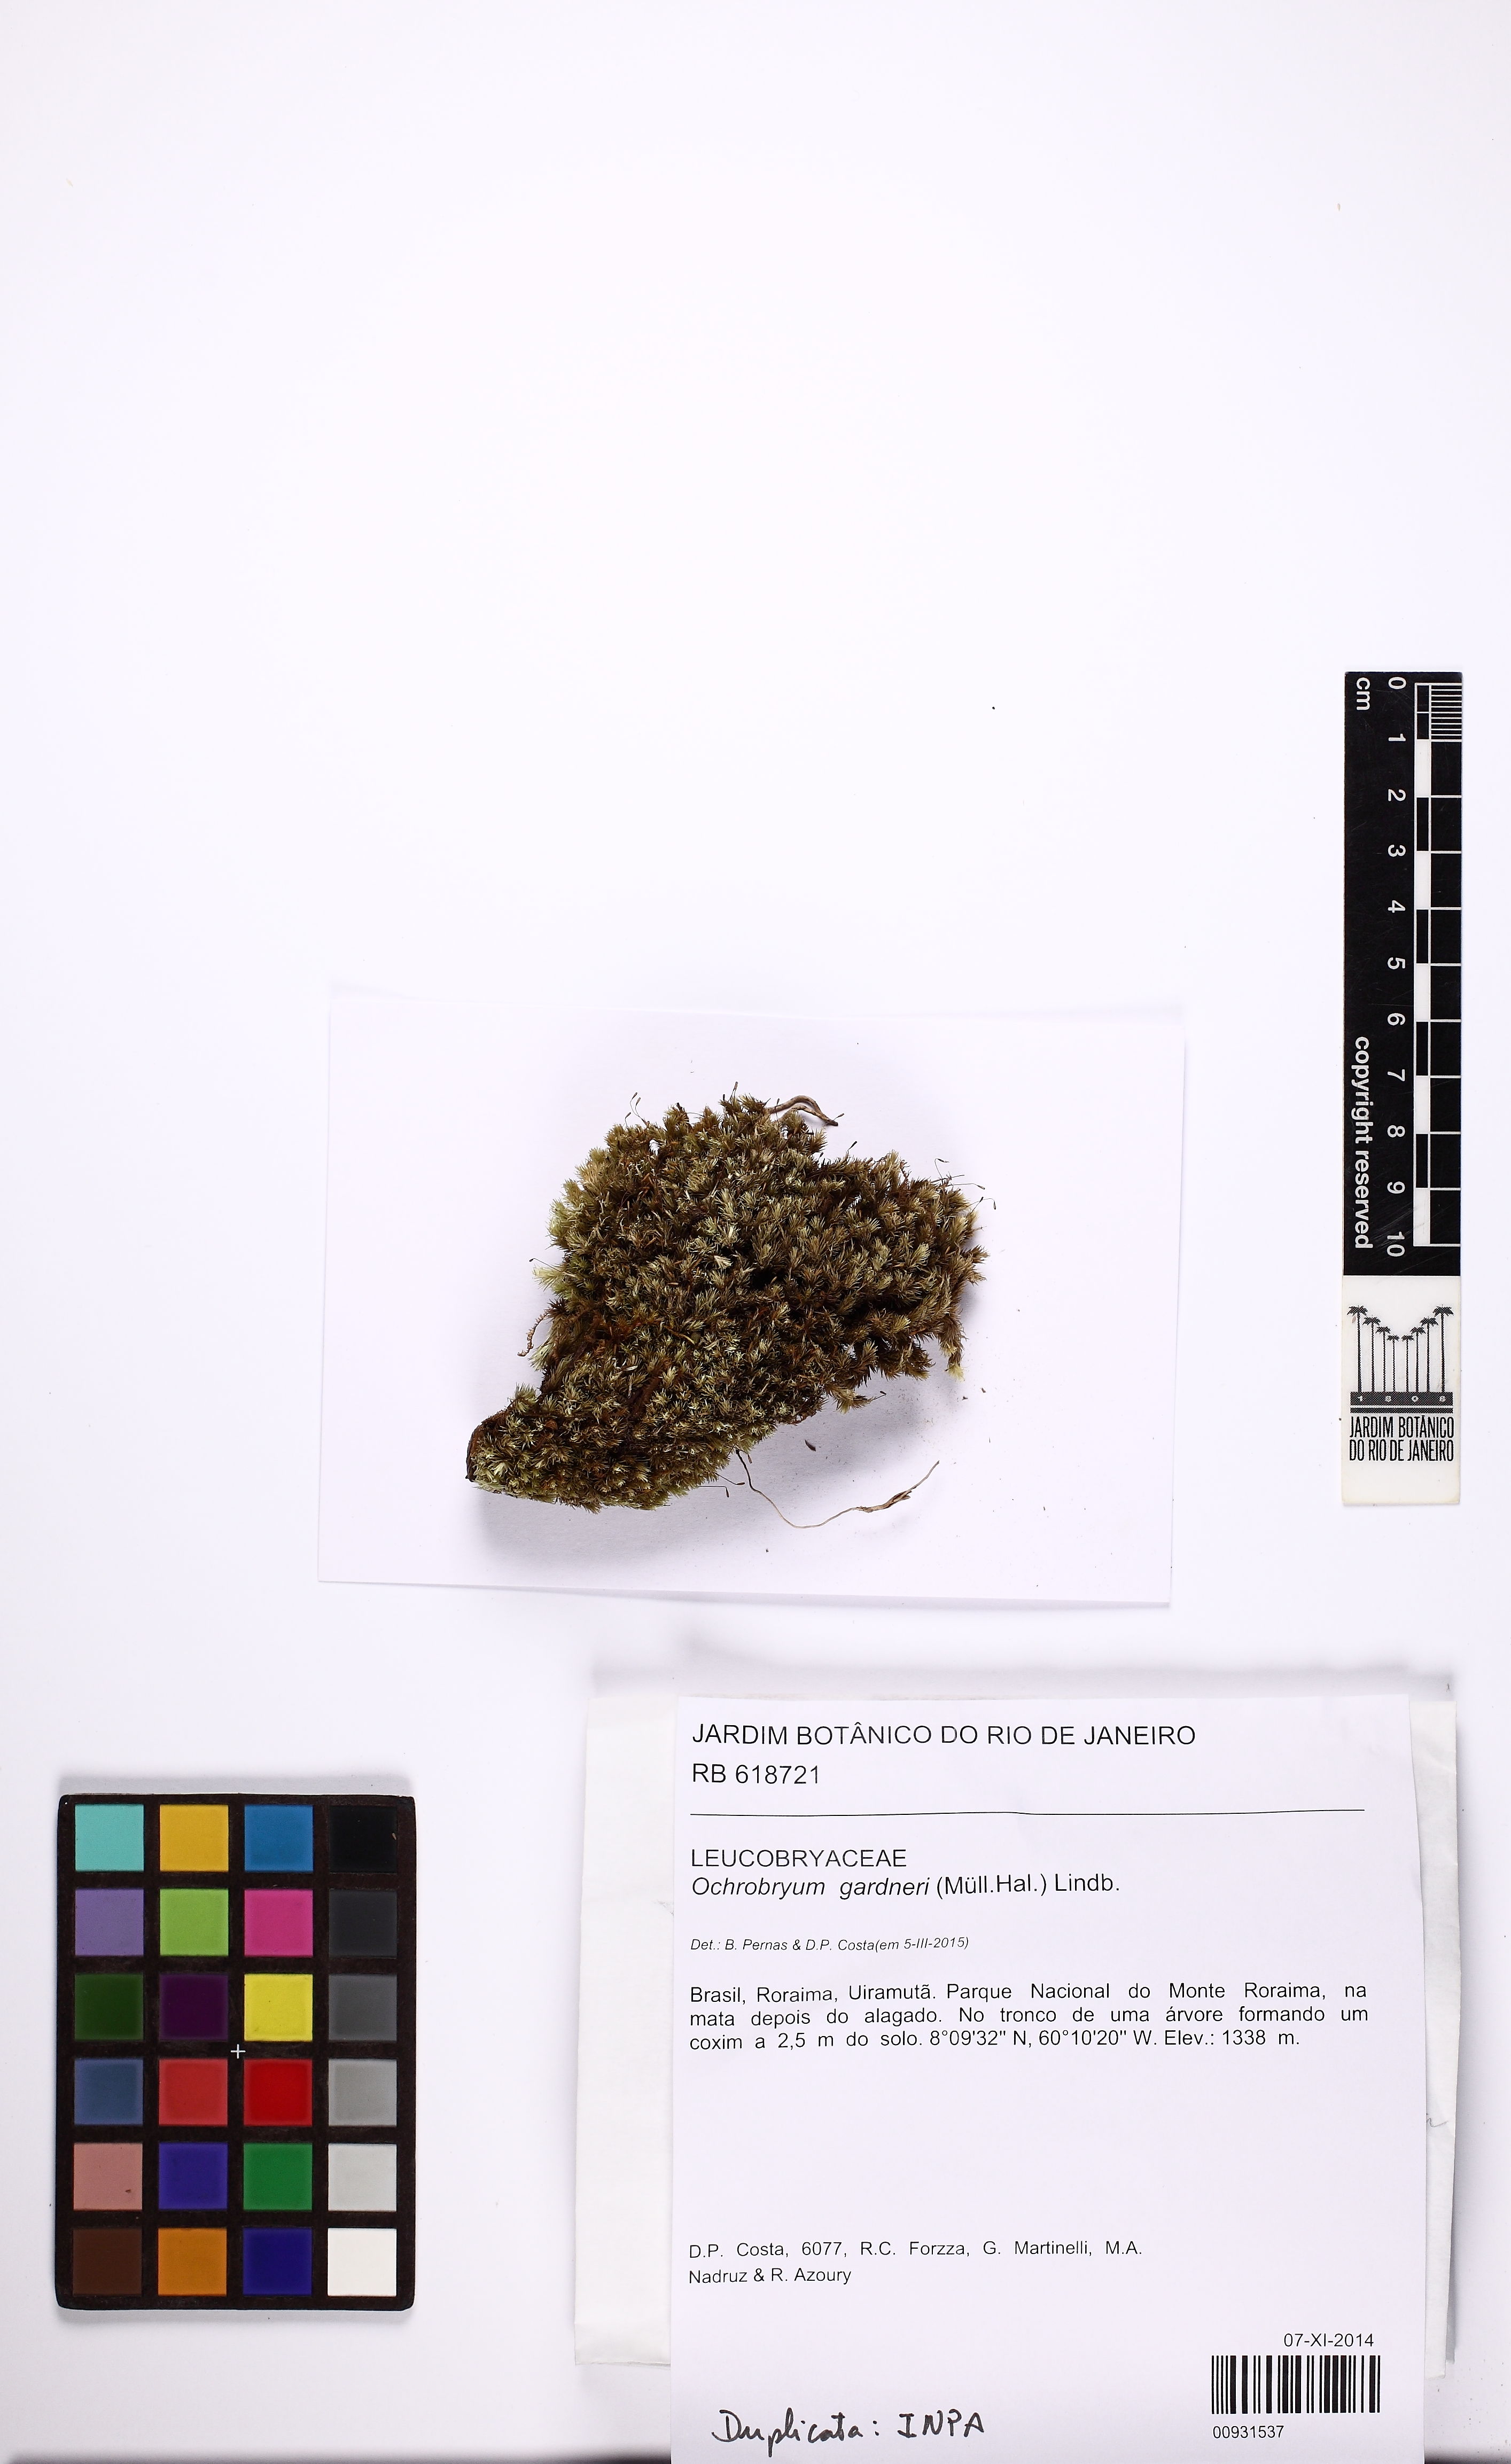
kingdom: Plantae
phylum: Bryophyta
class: Bryopsida
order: Dicranales
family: Leucobryaceae
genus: Ochrobryum
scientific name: Ochrobryum gardneri
